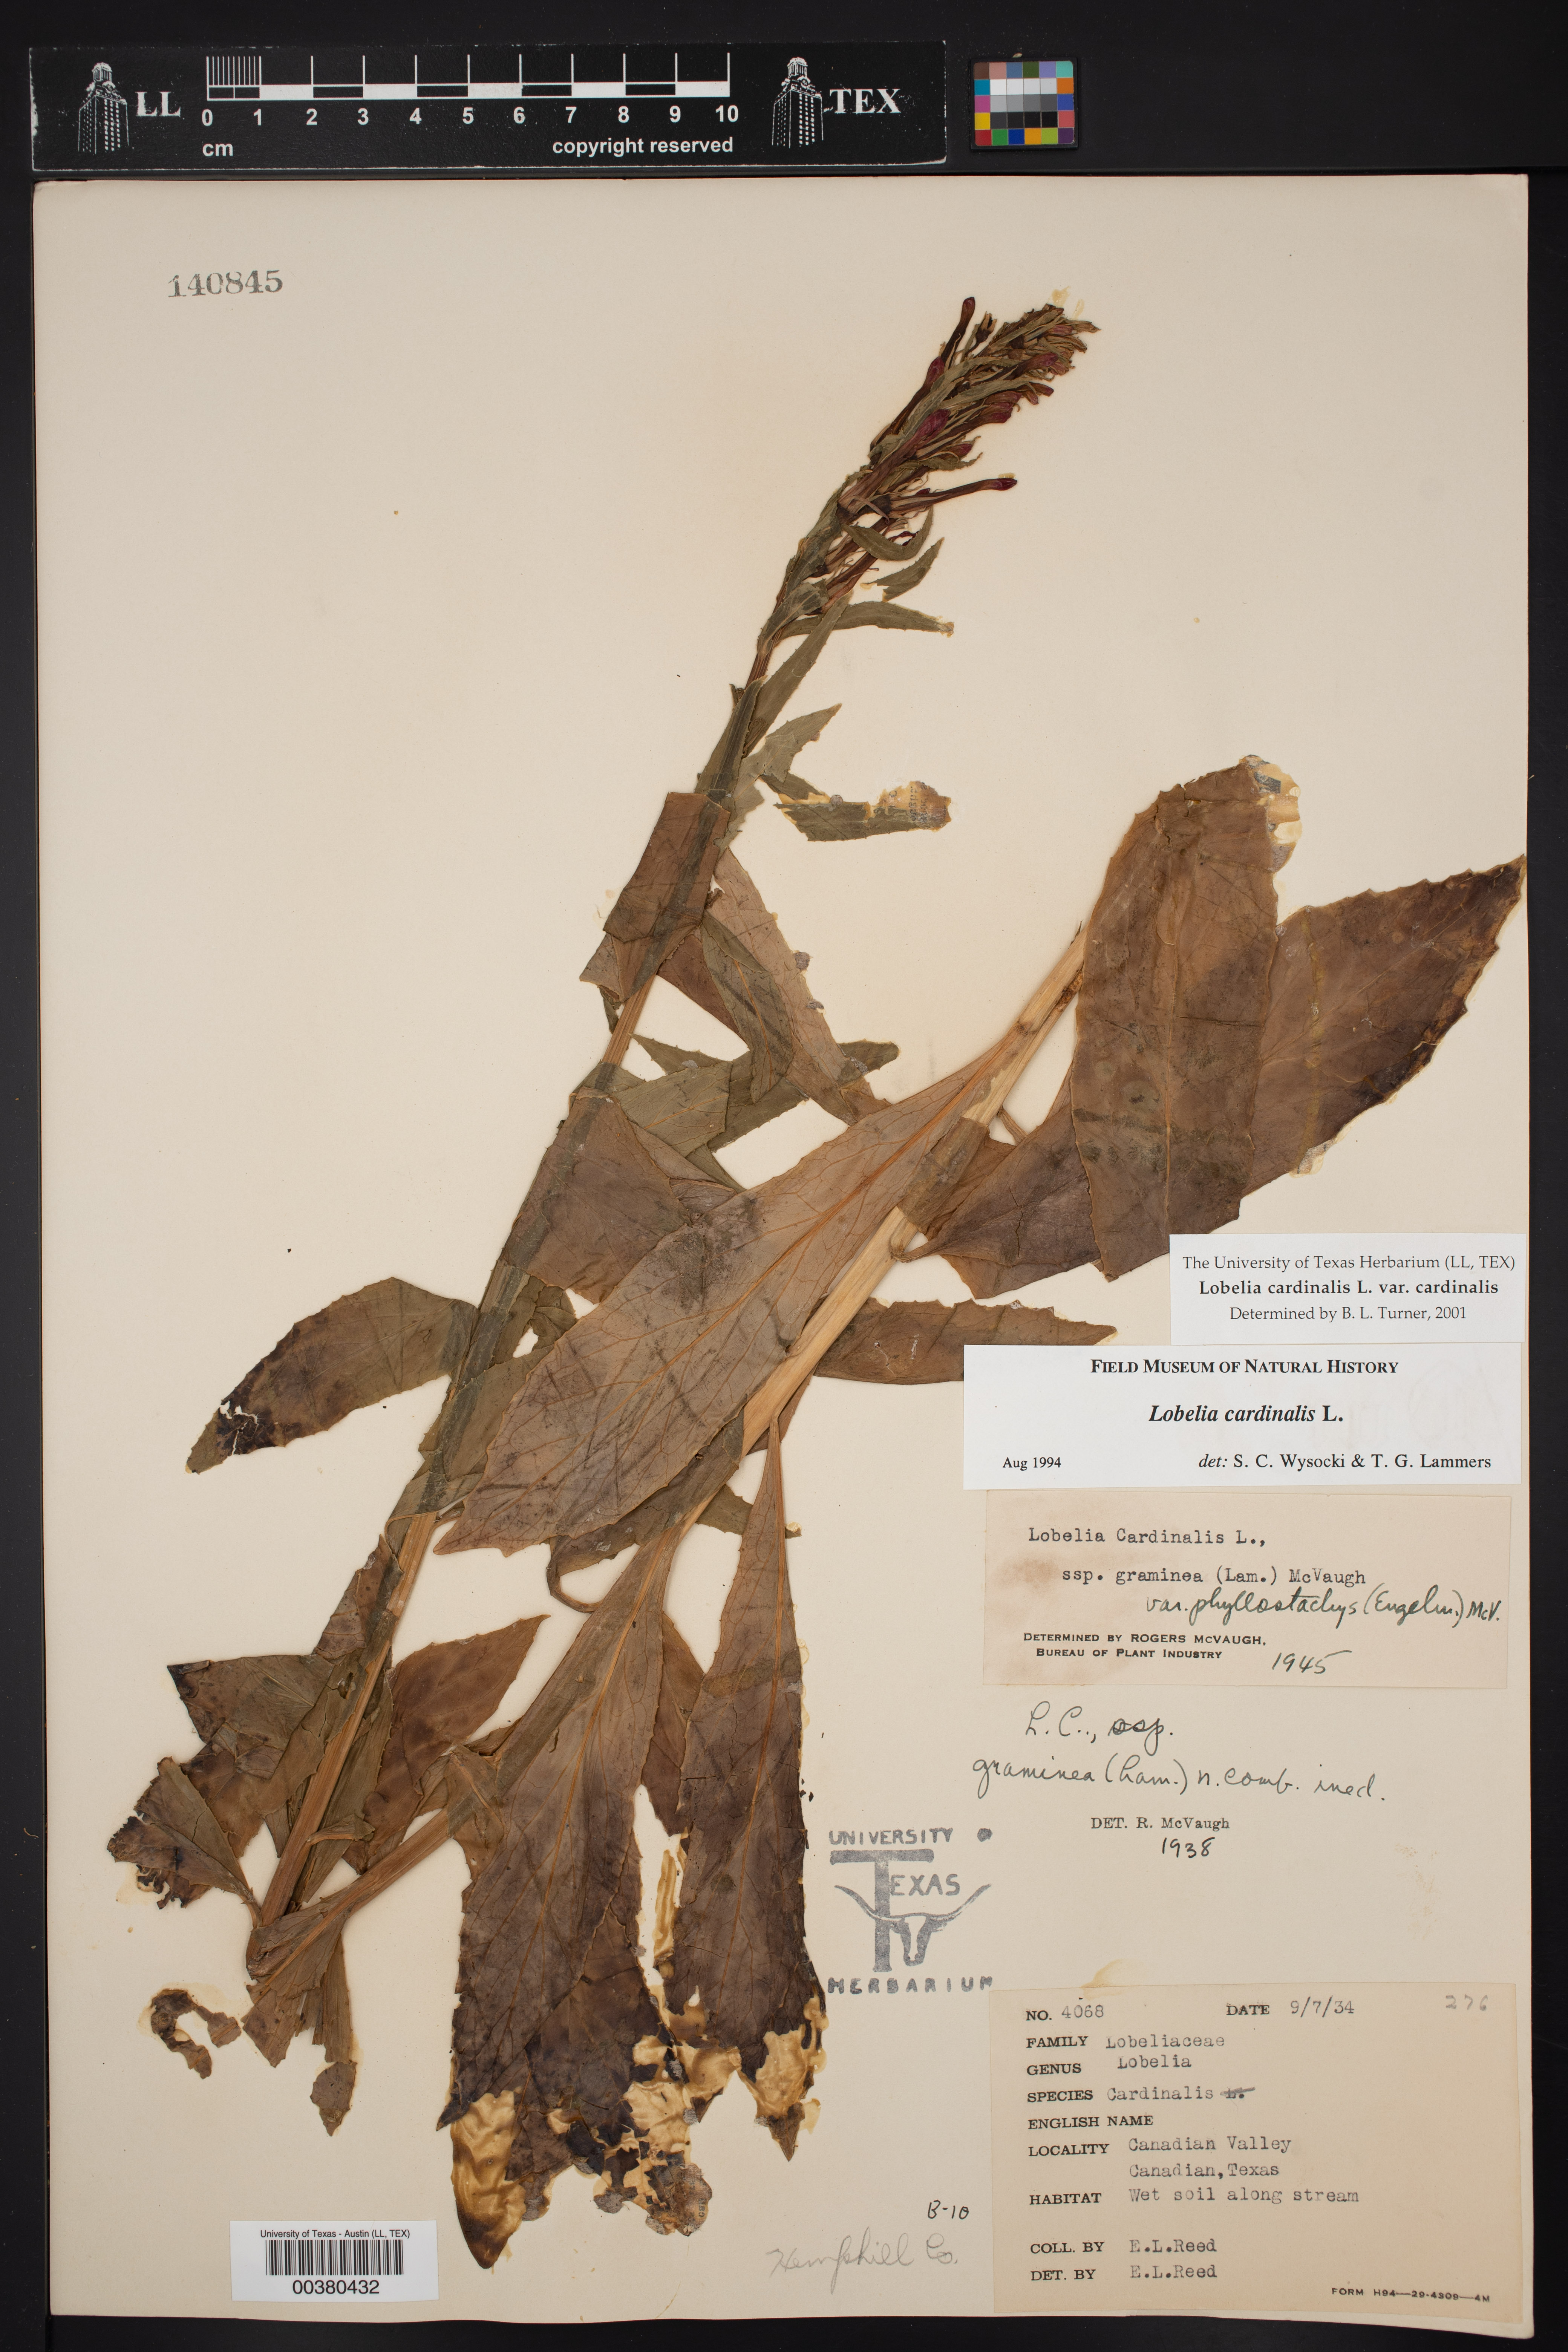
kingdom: Plantae
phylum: Tracheophyta
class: Magnoliopsida
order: Asterales
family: Campanulaceae
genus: Lobelia
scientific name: Lobelia cardinalis
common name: Cardinal flower
